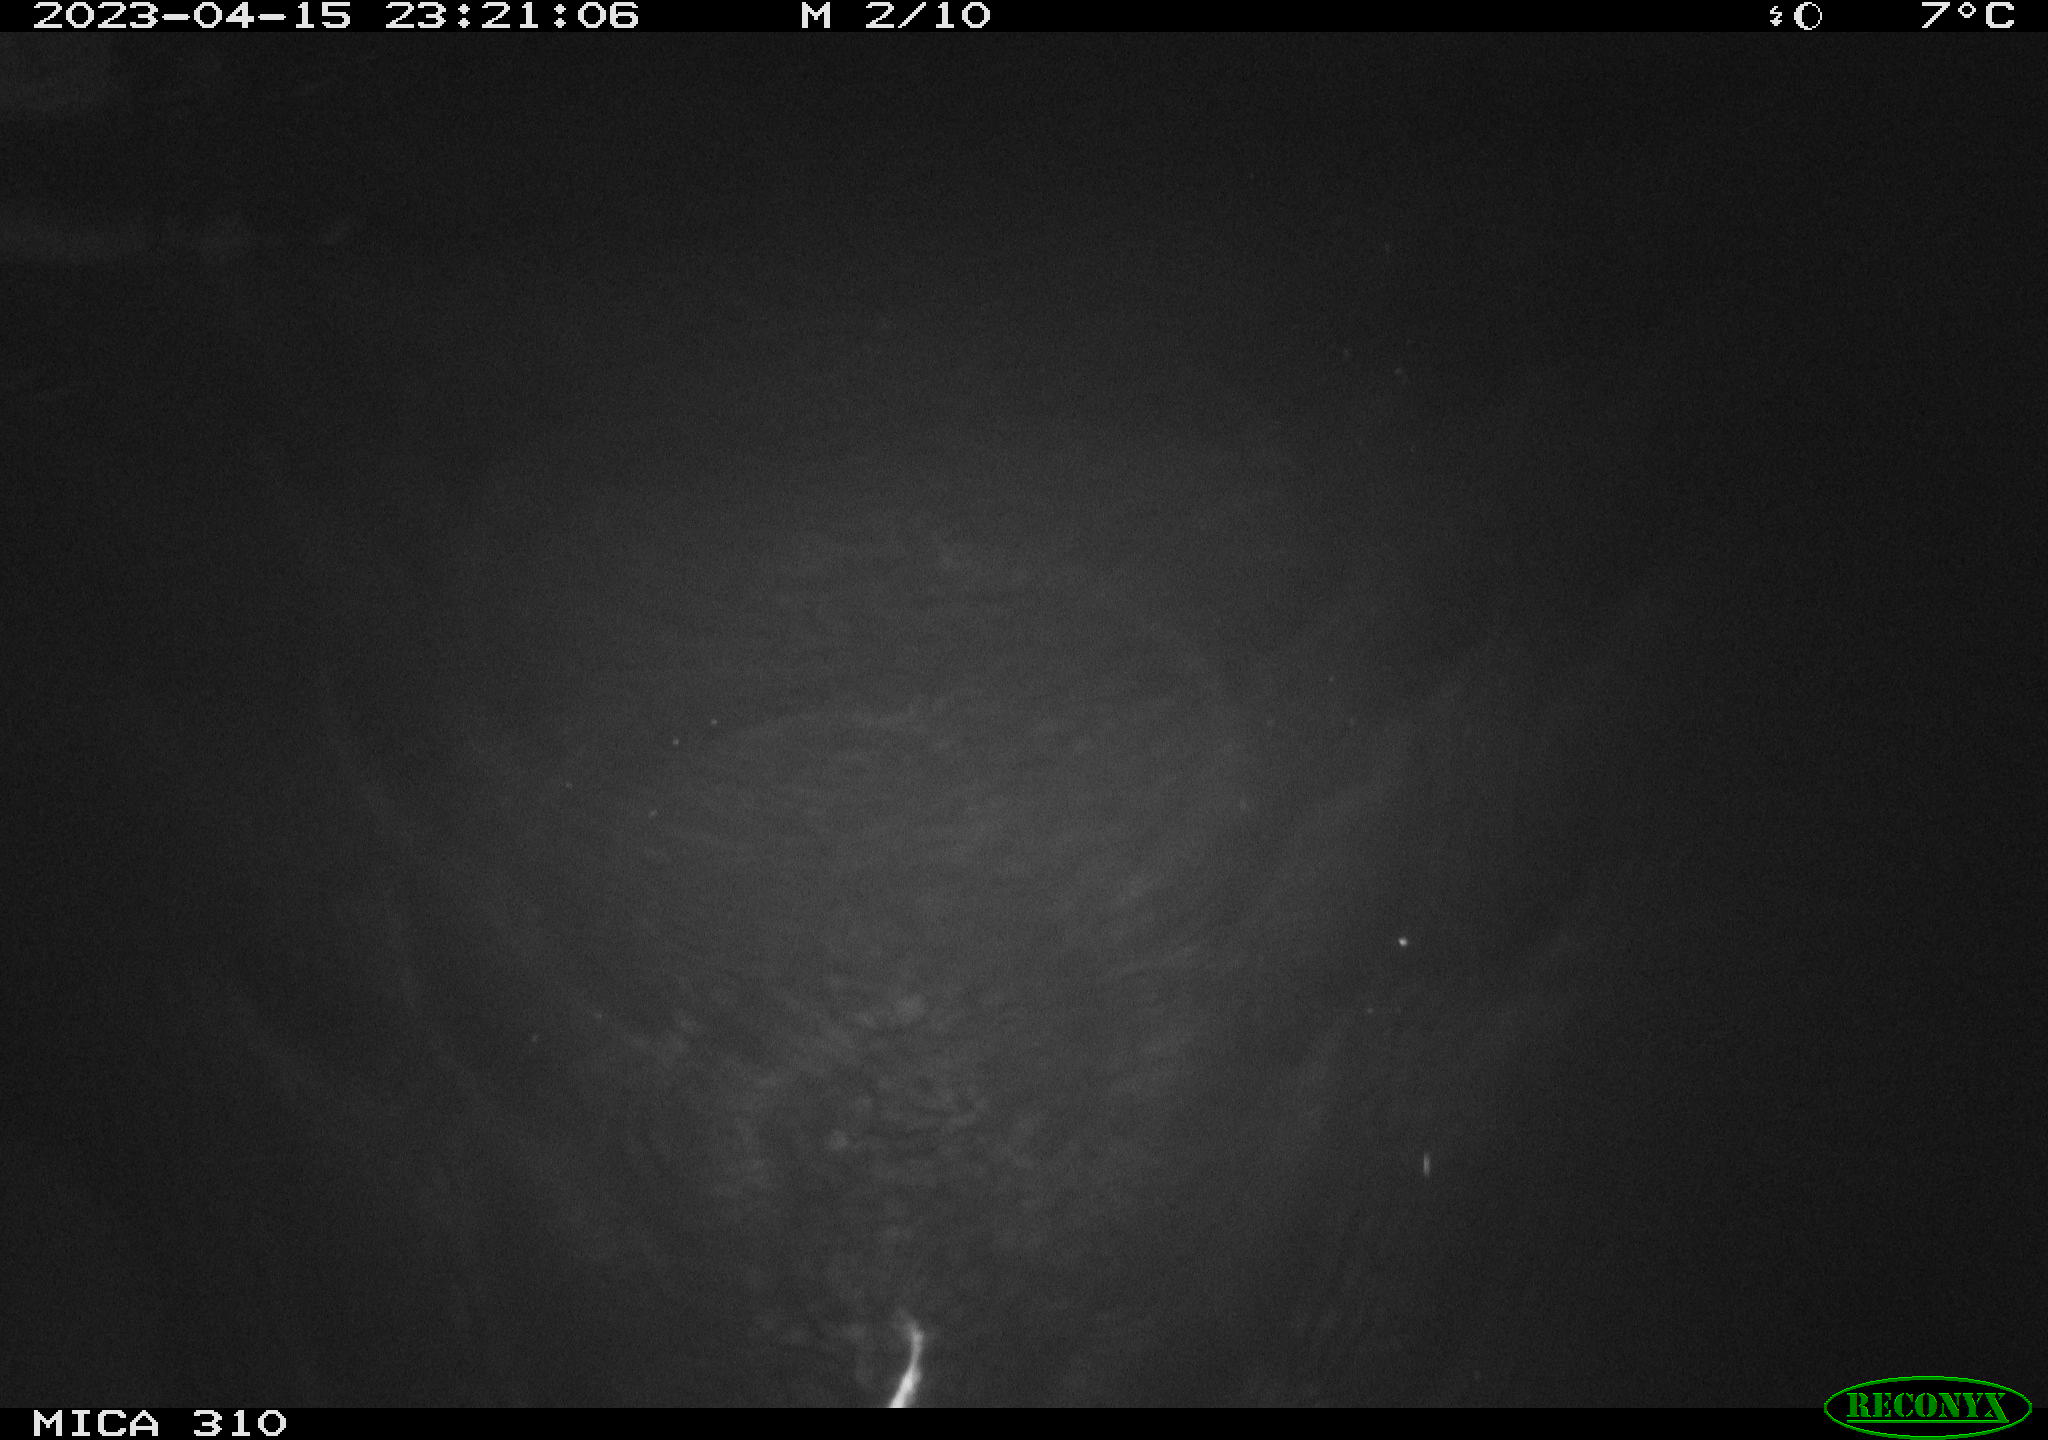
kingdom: Animalia
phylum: Chordata
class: Mammalia
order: Rodentia
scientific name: Rodentia
